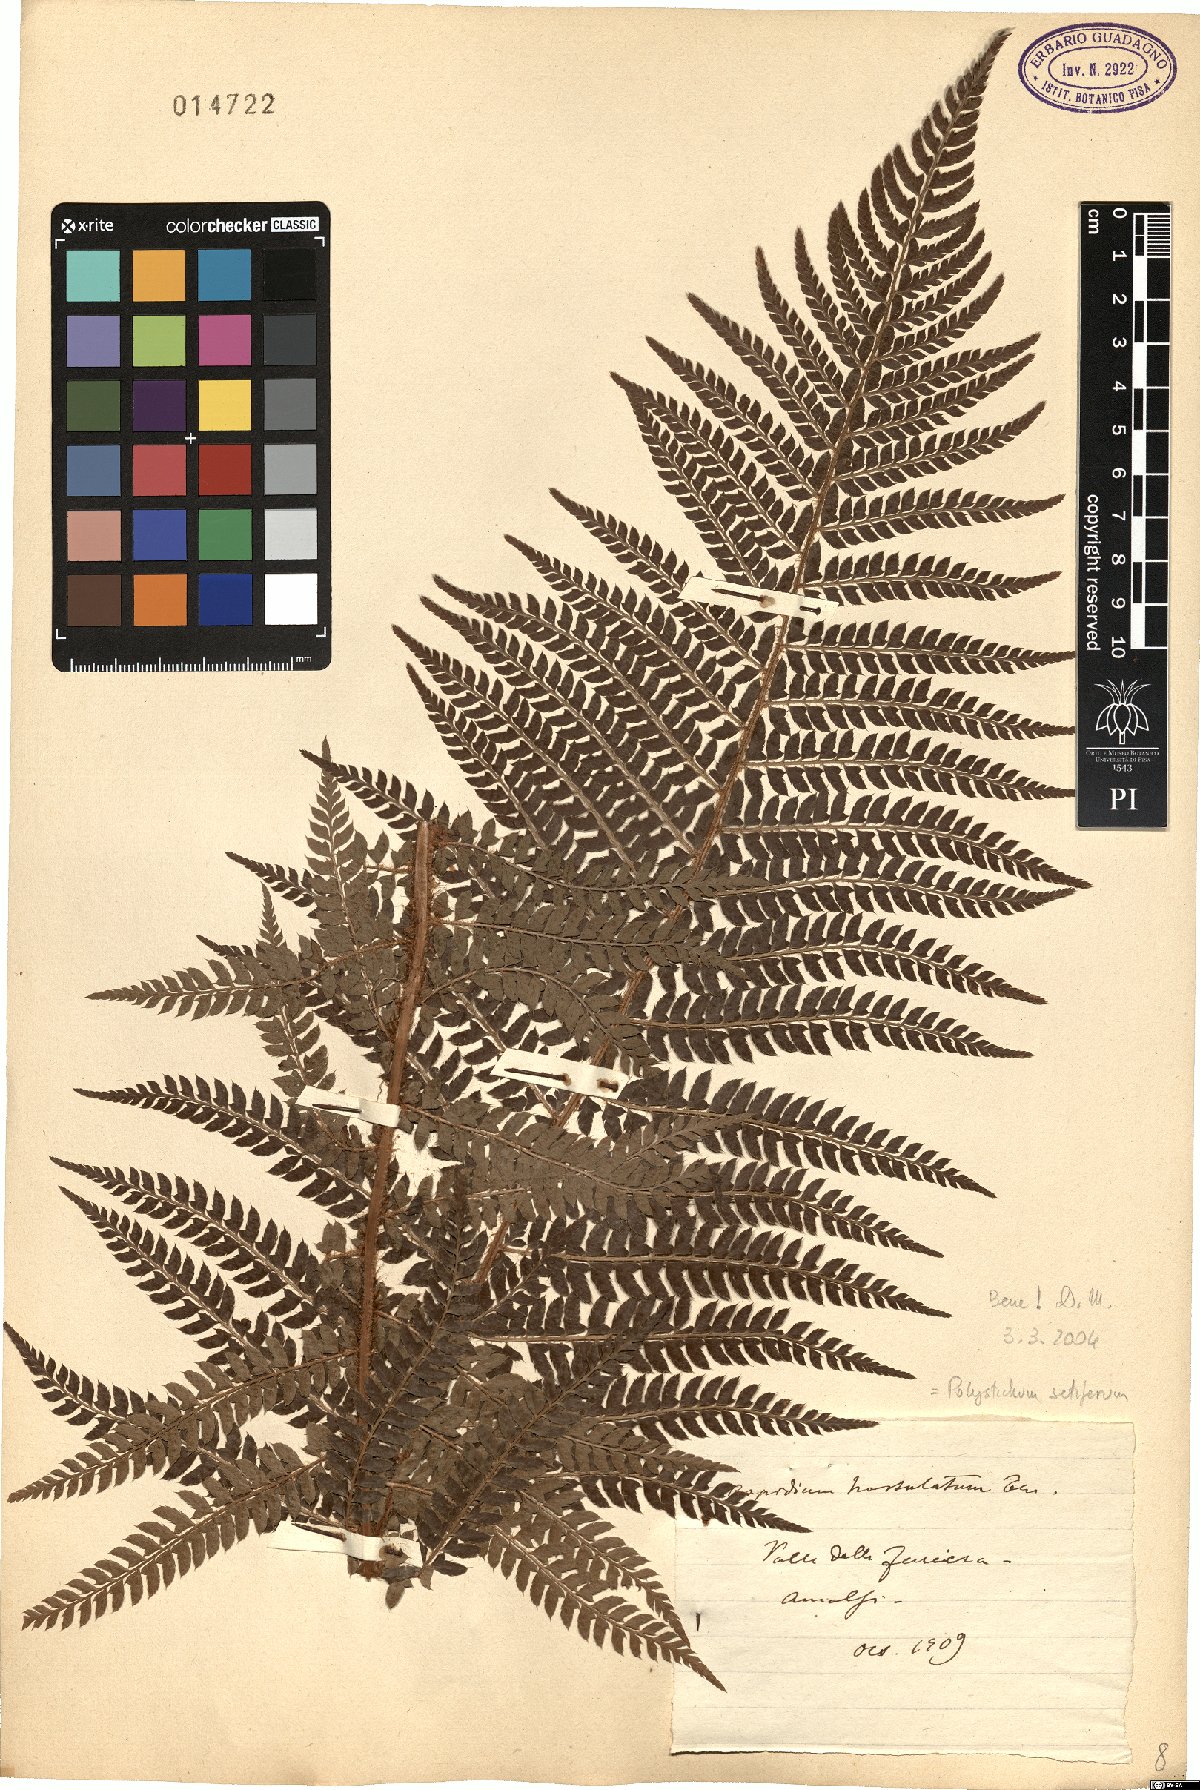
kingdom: Plantae
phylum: Tracheophyta
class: Polypodiopsida
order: Polypodiales
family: Dryopteridaceae
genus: Polystichum
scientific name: Polystichum setiferum
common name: Soft shield-fern
